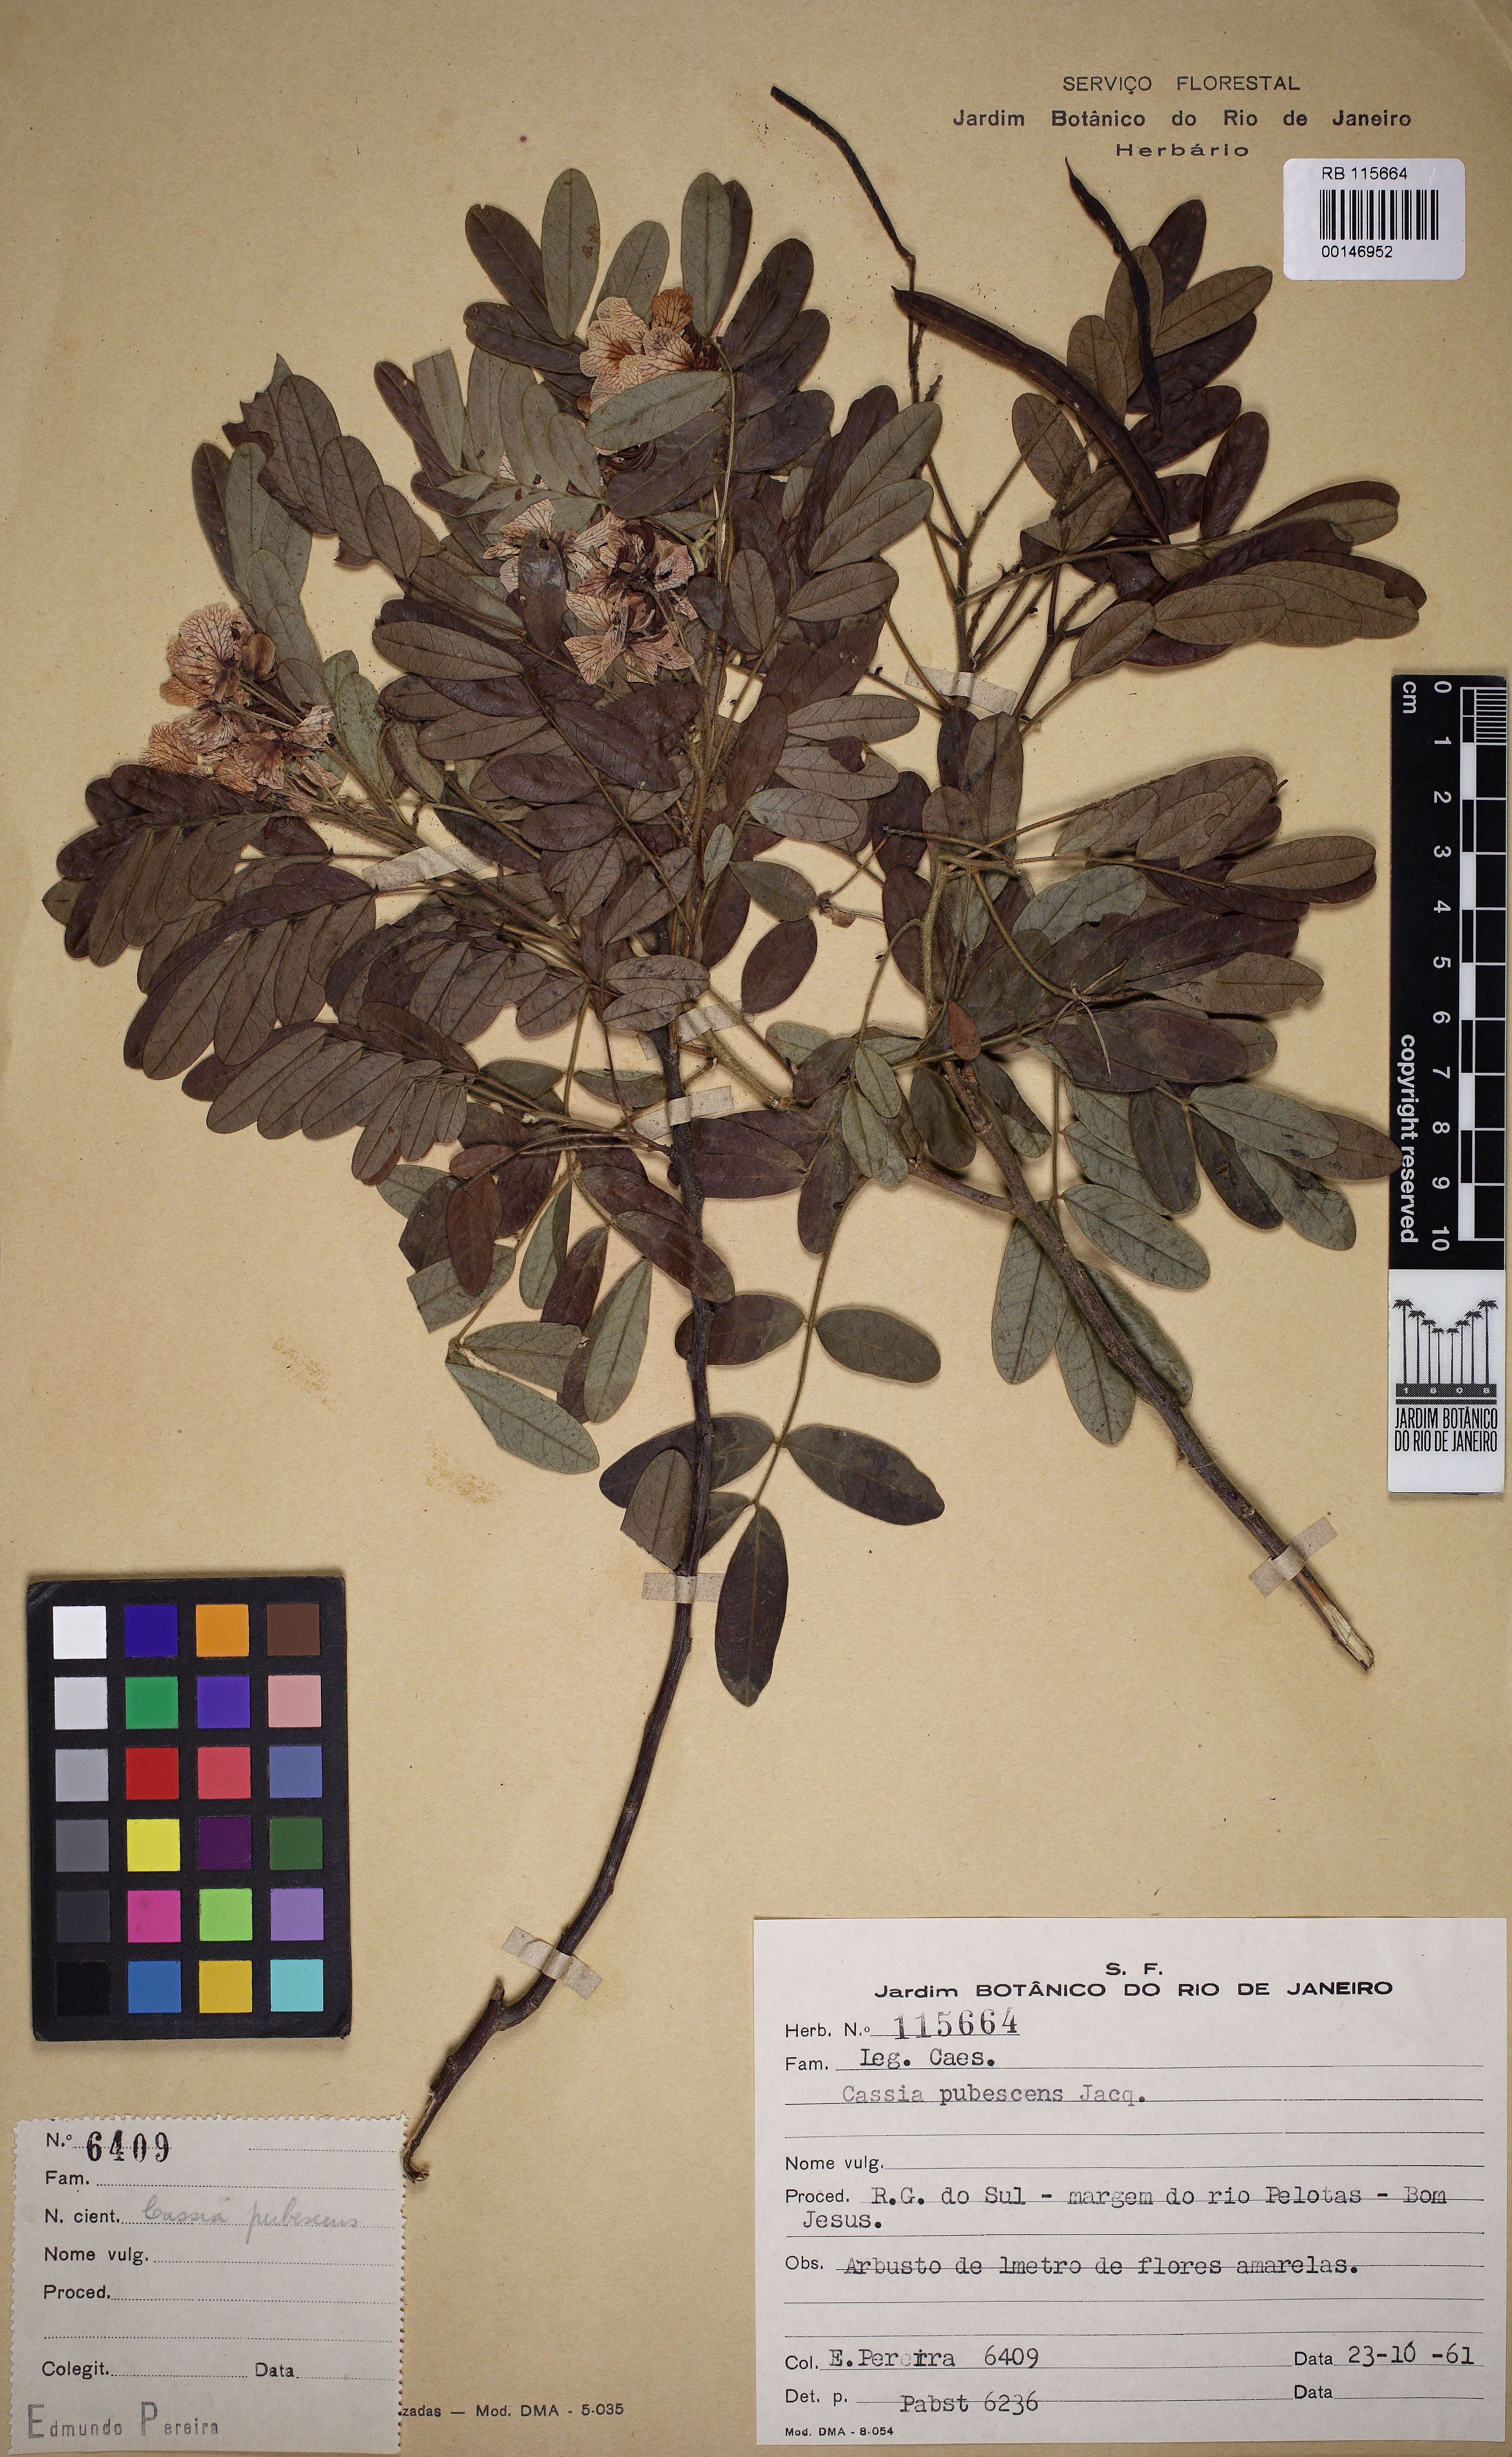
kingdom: Plantae
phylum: Tracheophyta
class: Magnoliopsida
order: Fabales
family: Fabaceae
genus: Senna
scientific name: Senna hirsuta
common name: Woolly senna
